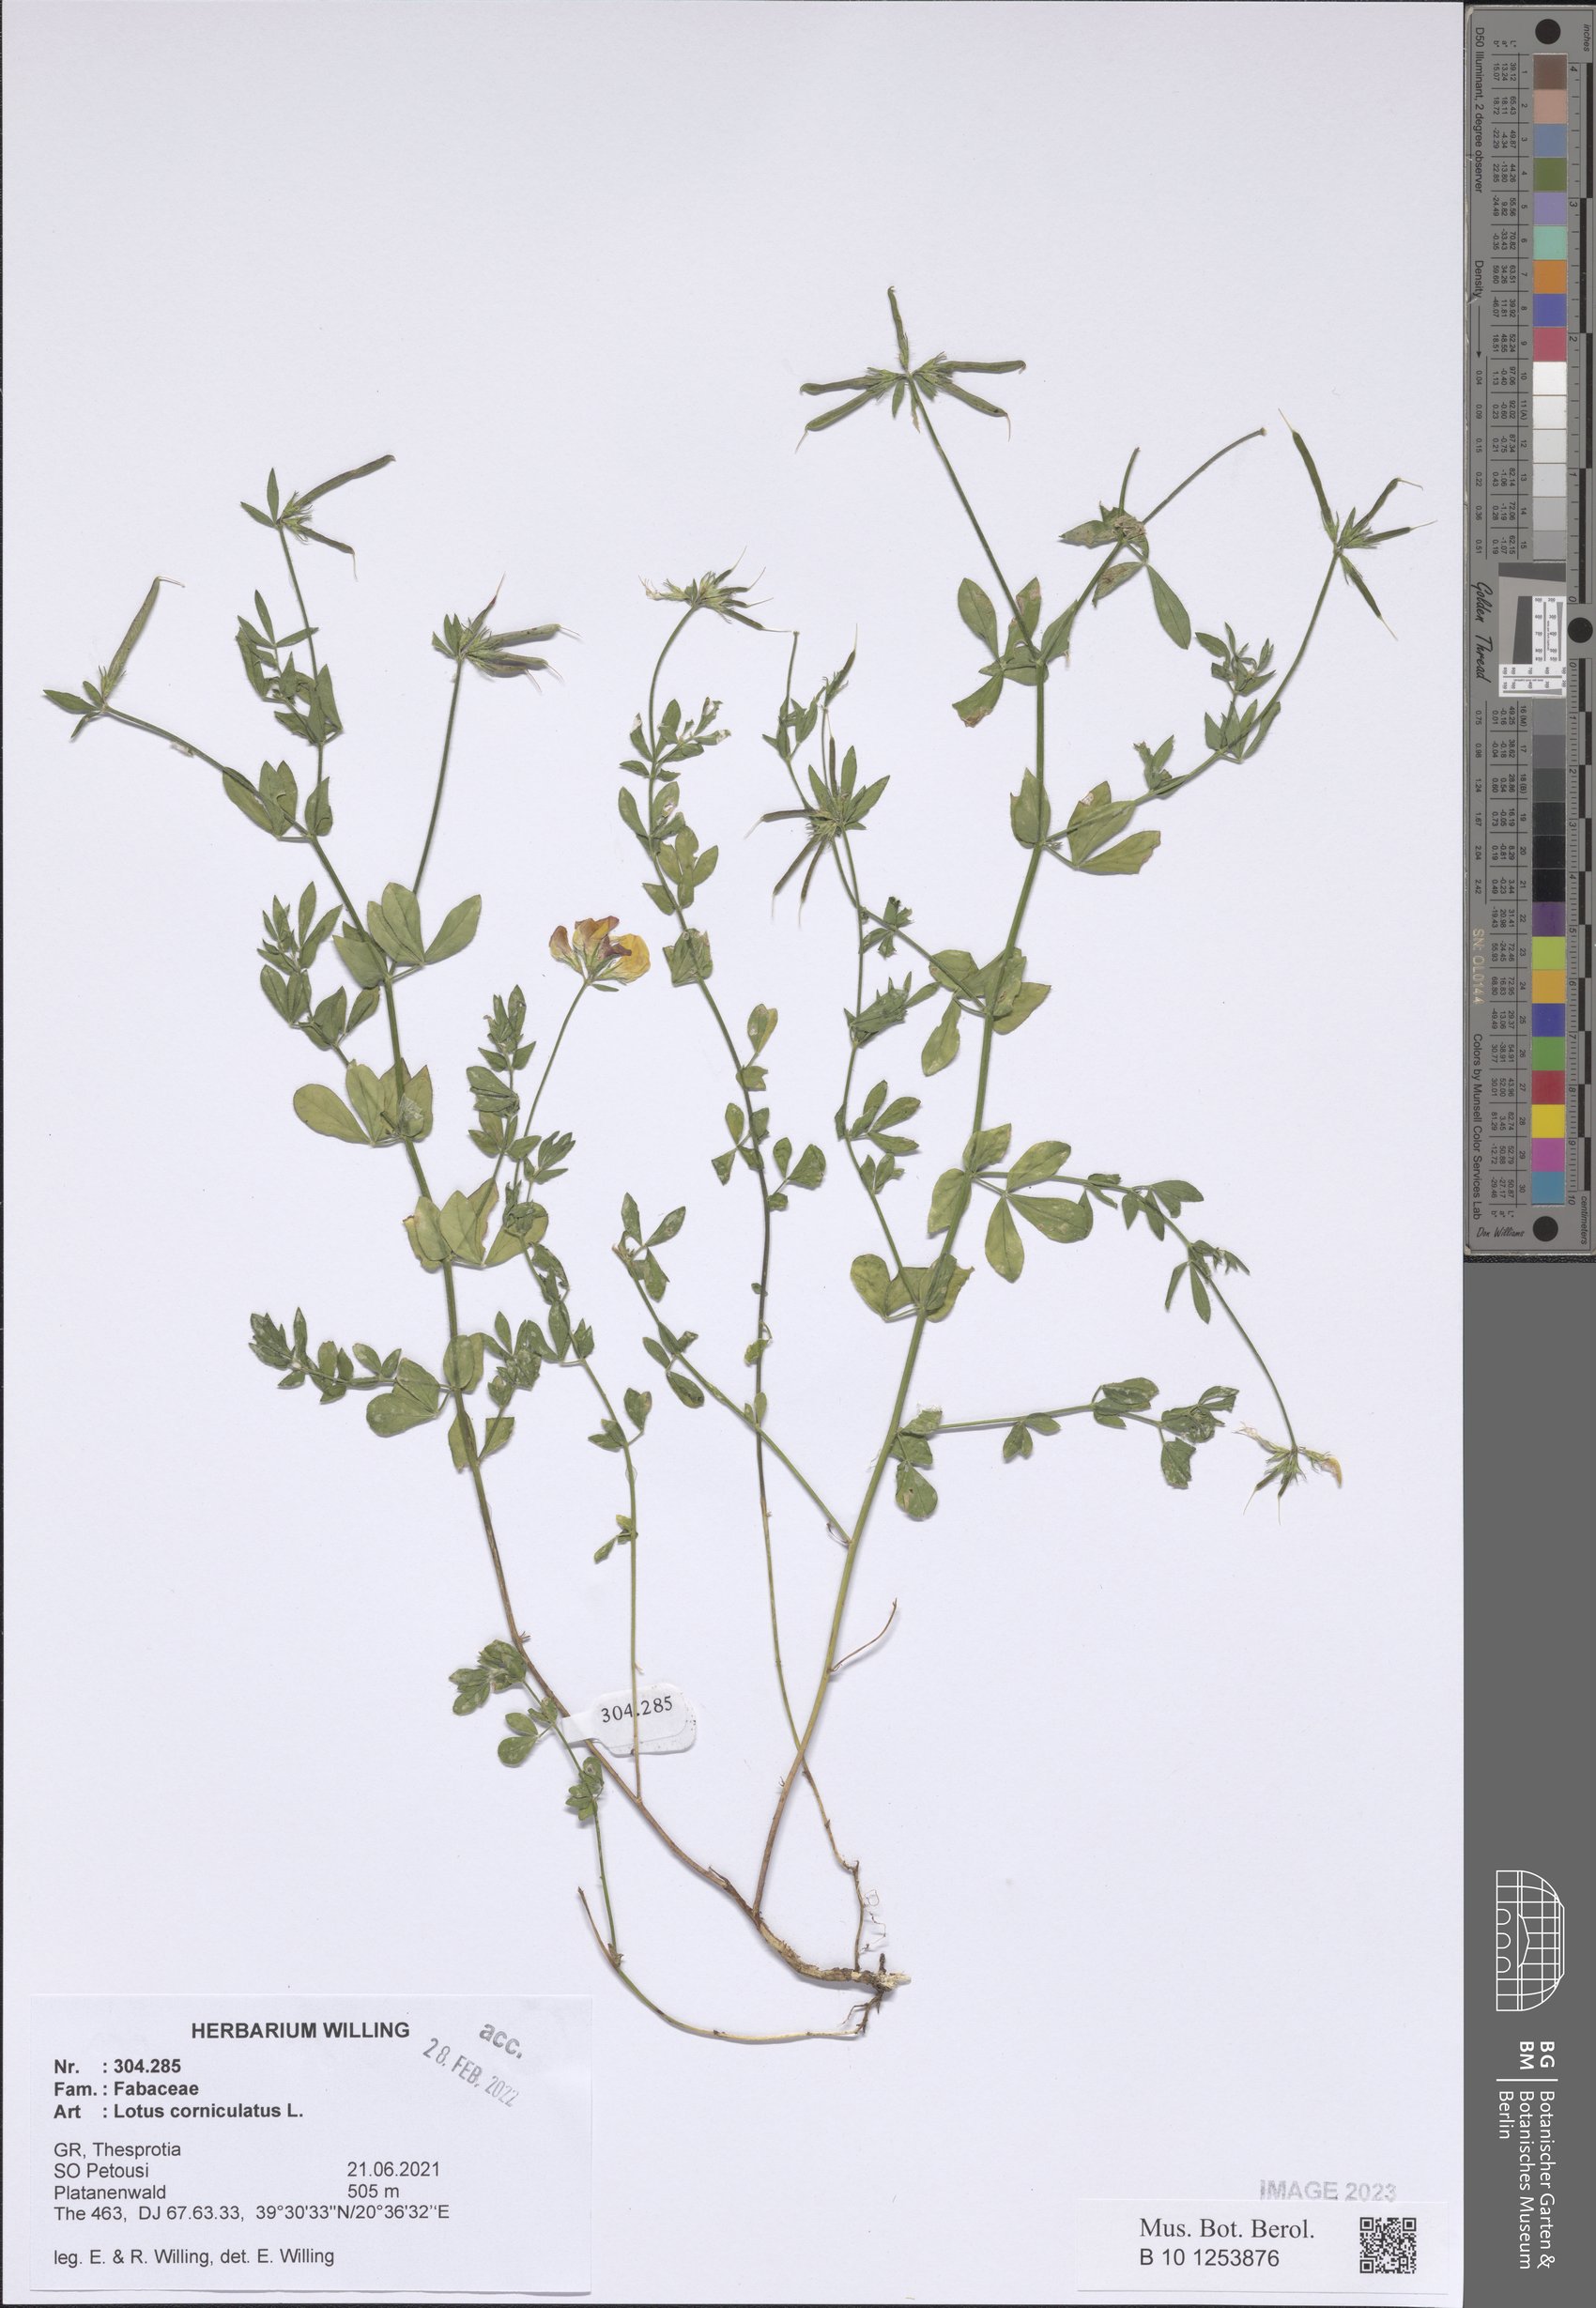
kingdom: Plantae
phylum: Tracheophyta
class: Magnoliopsida
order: Fabales
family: Fabaceae
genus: Lotus
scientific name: Lotus corniculatus
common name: Common bird's-foot-trefoil
